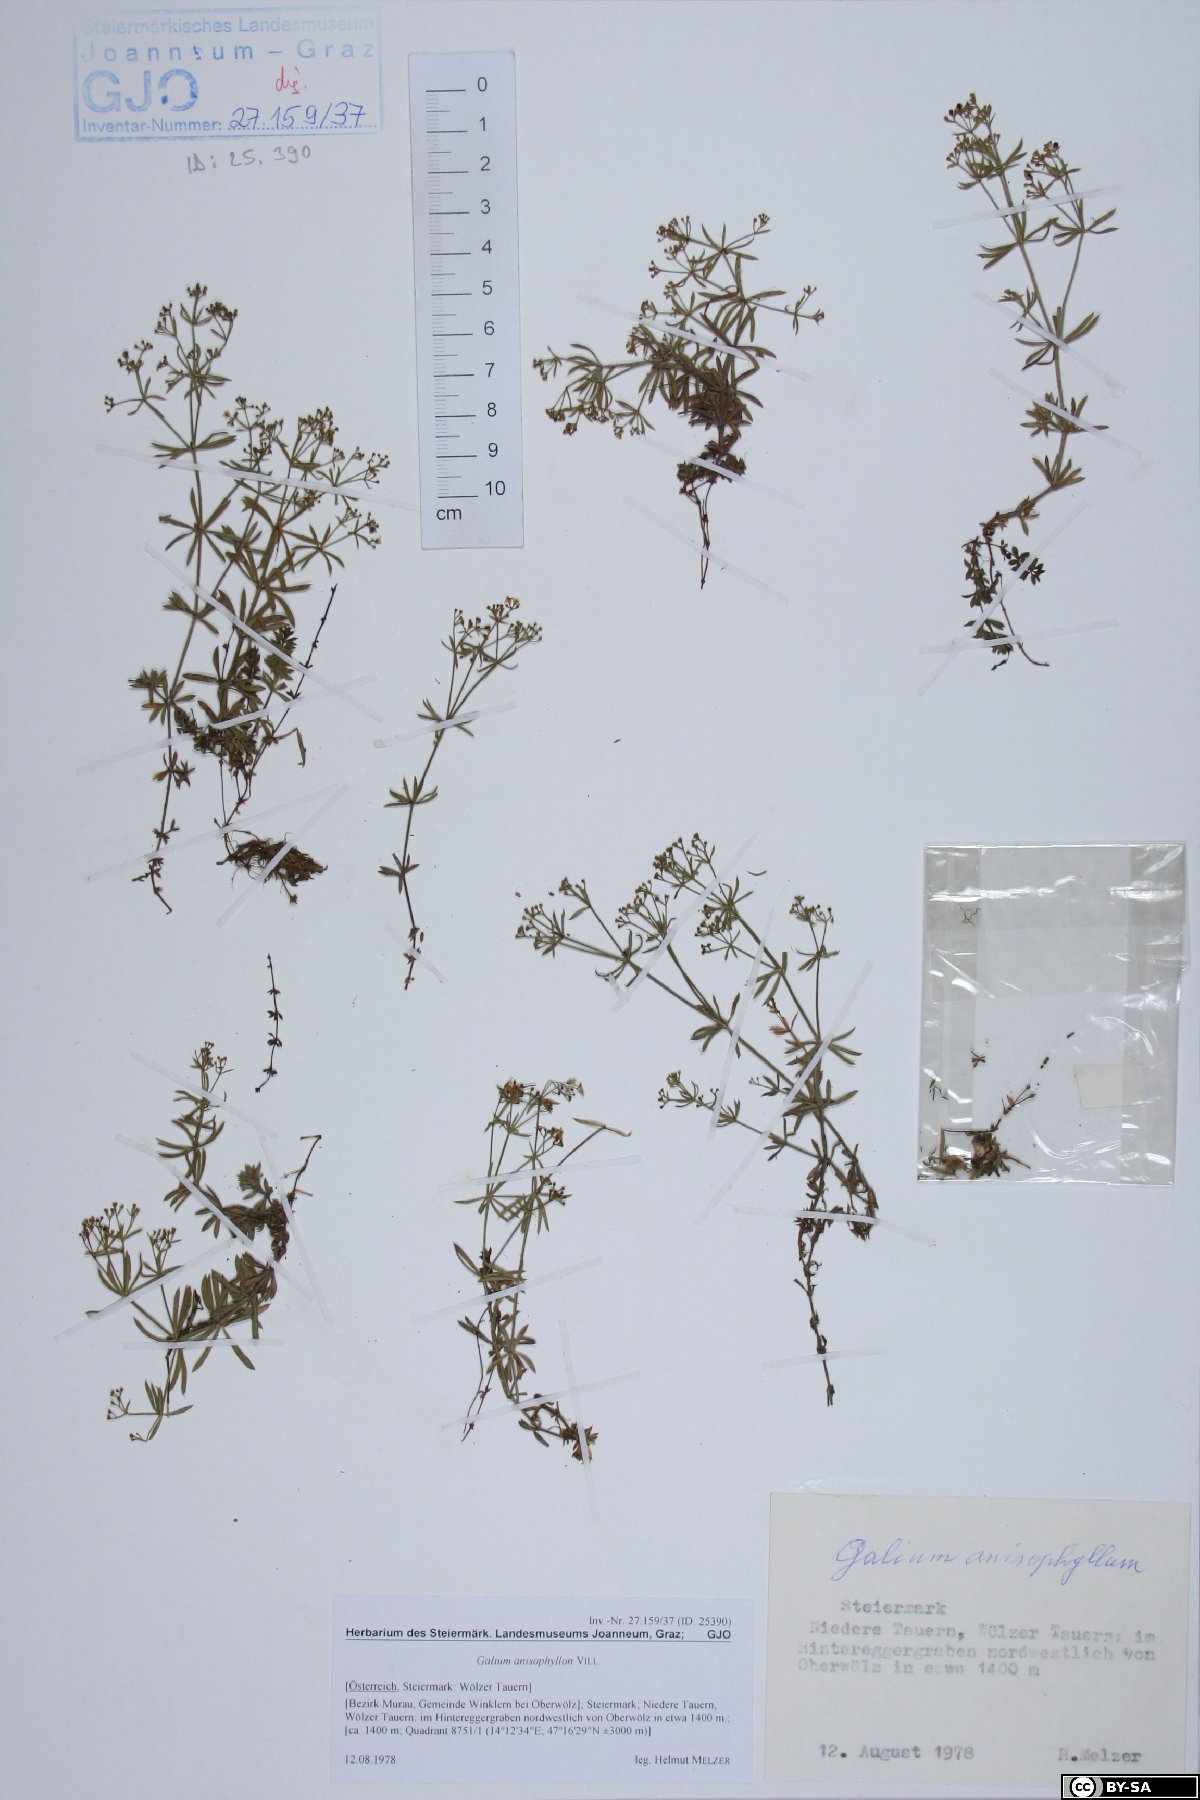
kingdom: Plantae
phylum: Tracheophyta
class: Magnoliopsida
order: Gentianales
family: Rubiaceae
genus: Galium
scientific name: Galium anisophyllon
